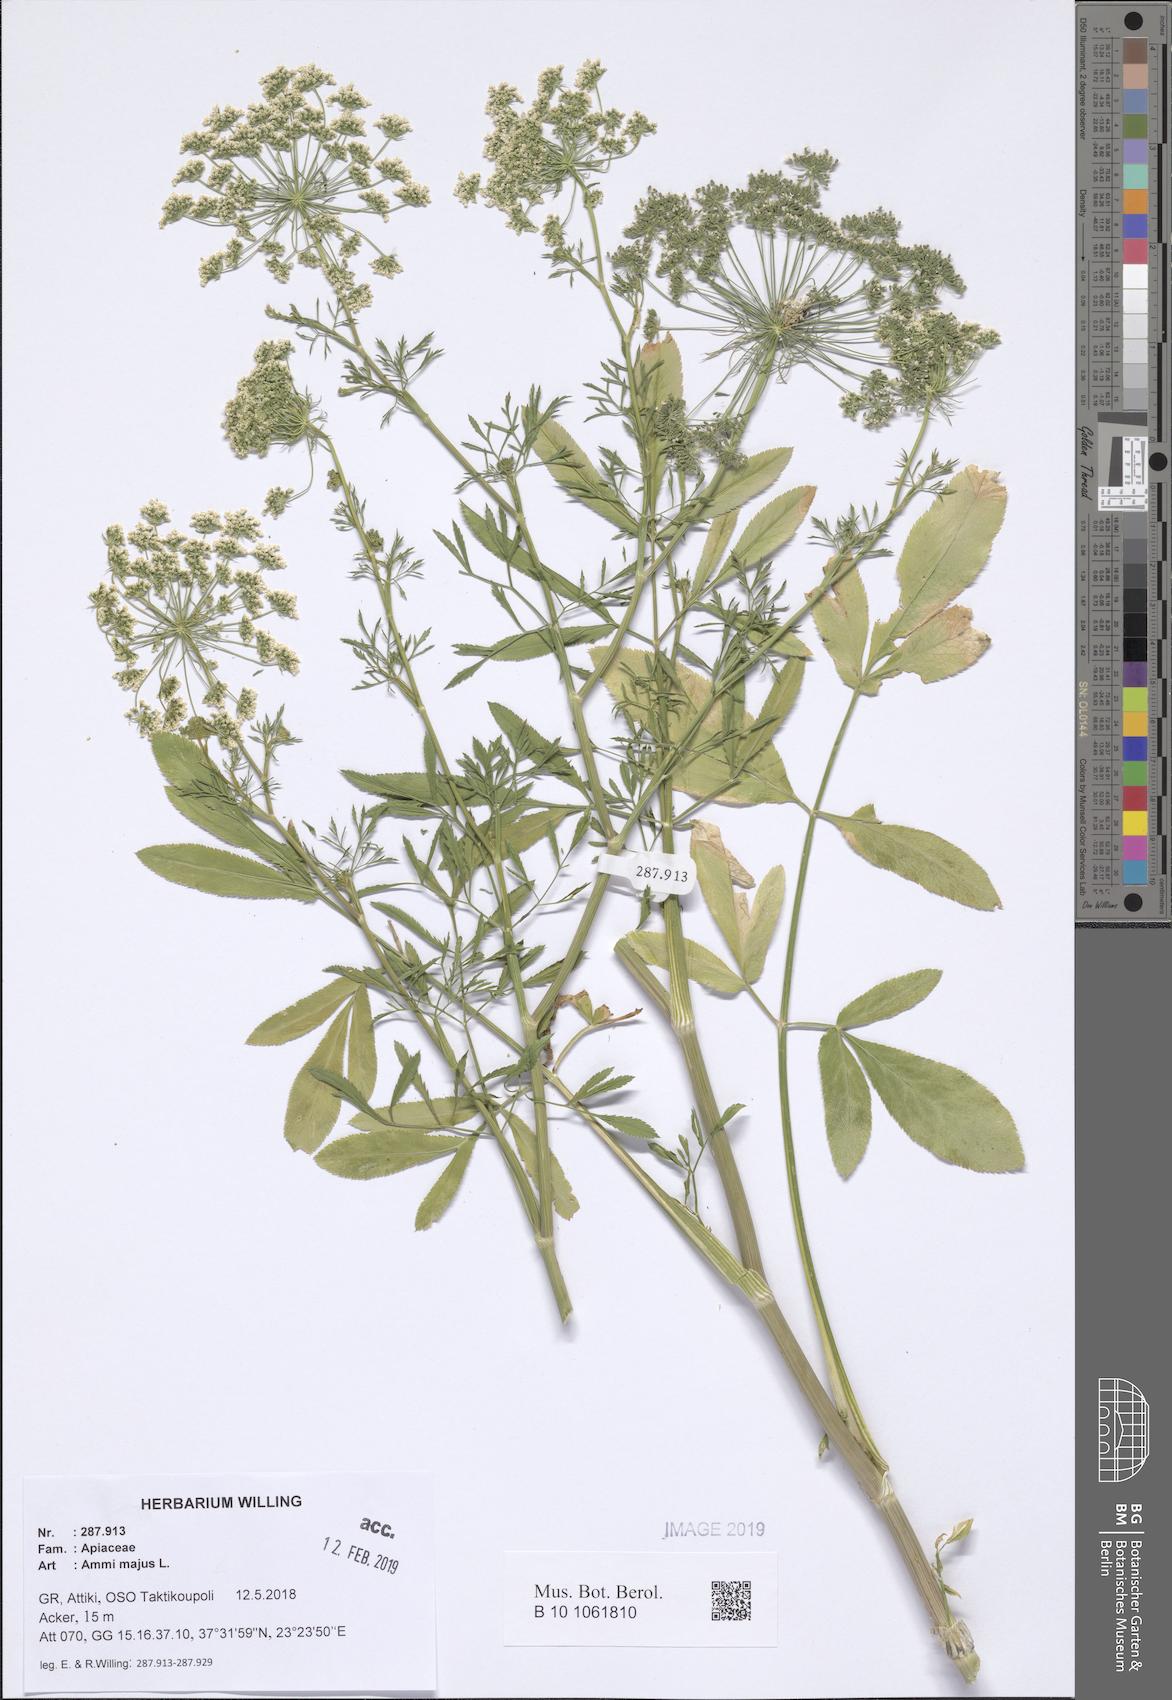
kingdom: Plantae
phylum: Tracheophyta
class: Magnoliopsida
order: Apiales
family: Apiaceae
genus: Ammi
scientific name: Ammi majus
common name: Bullwort
